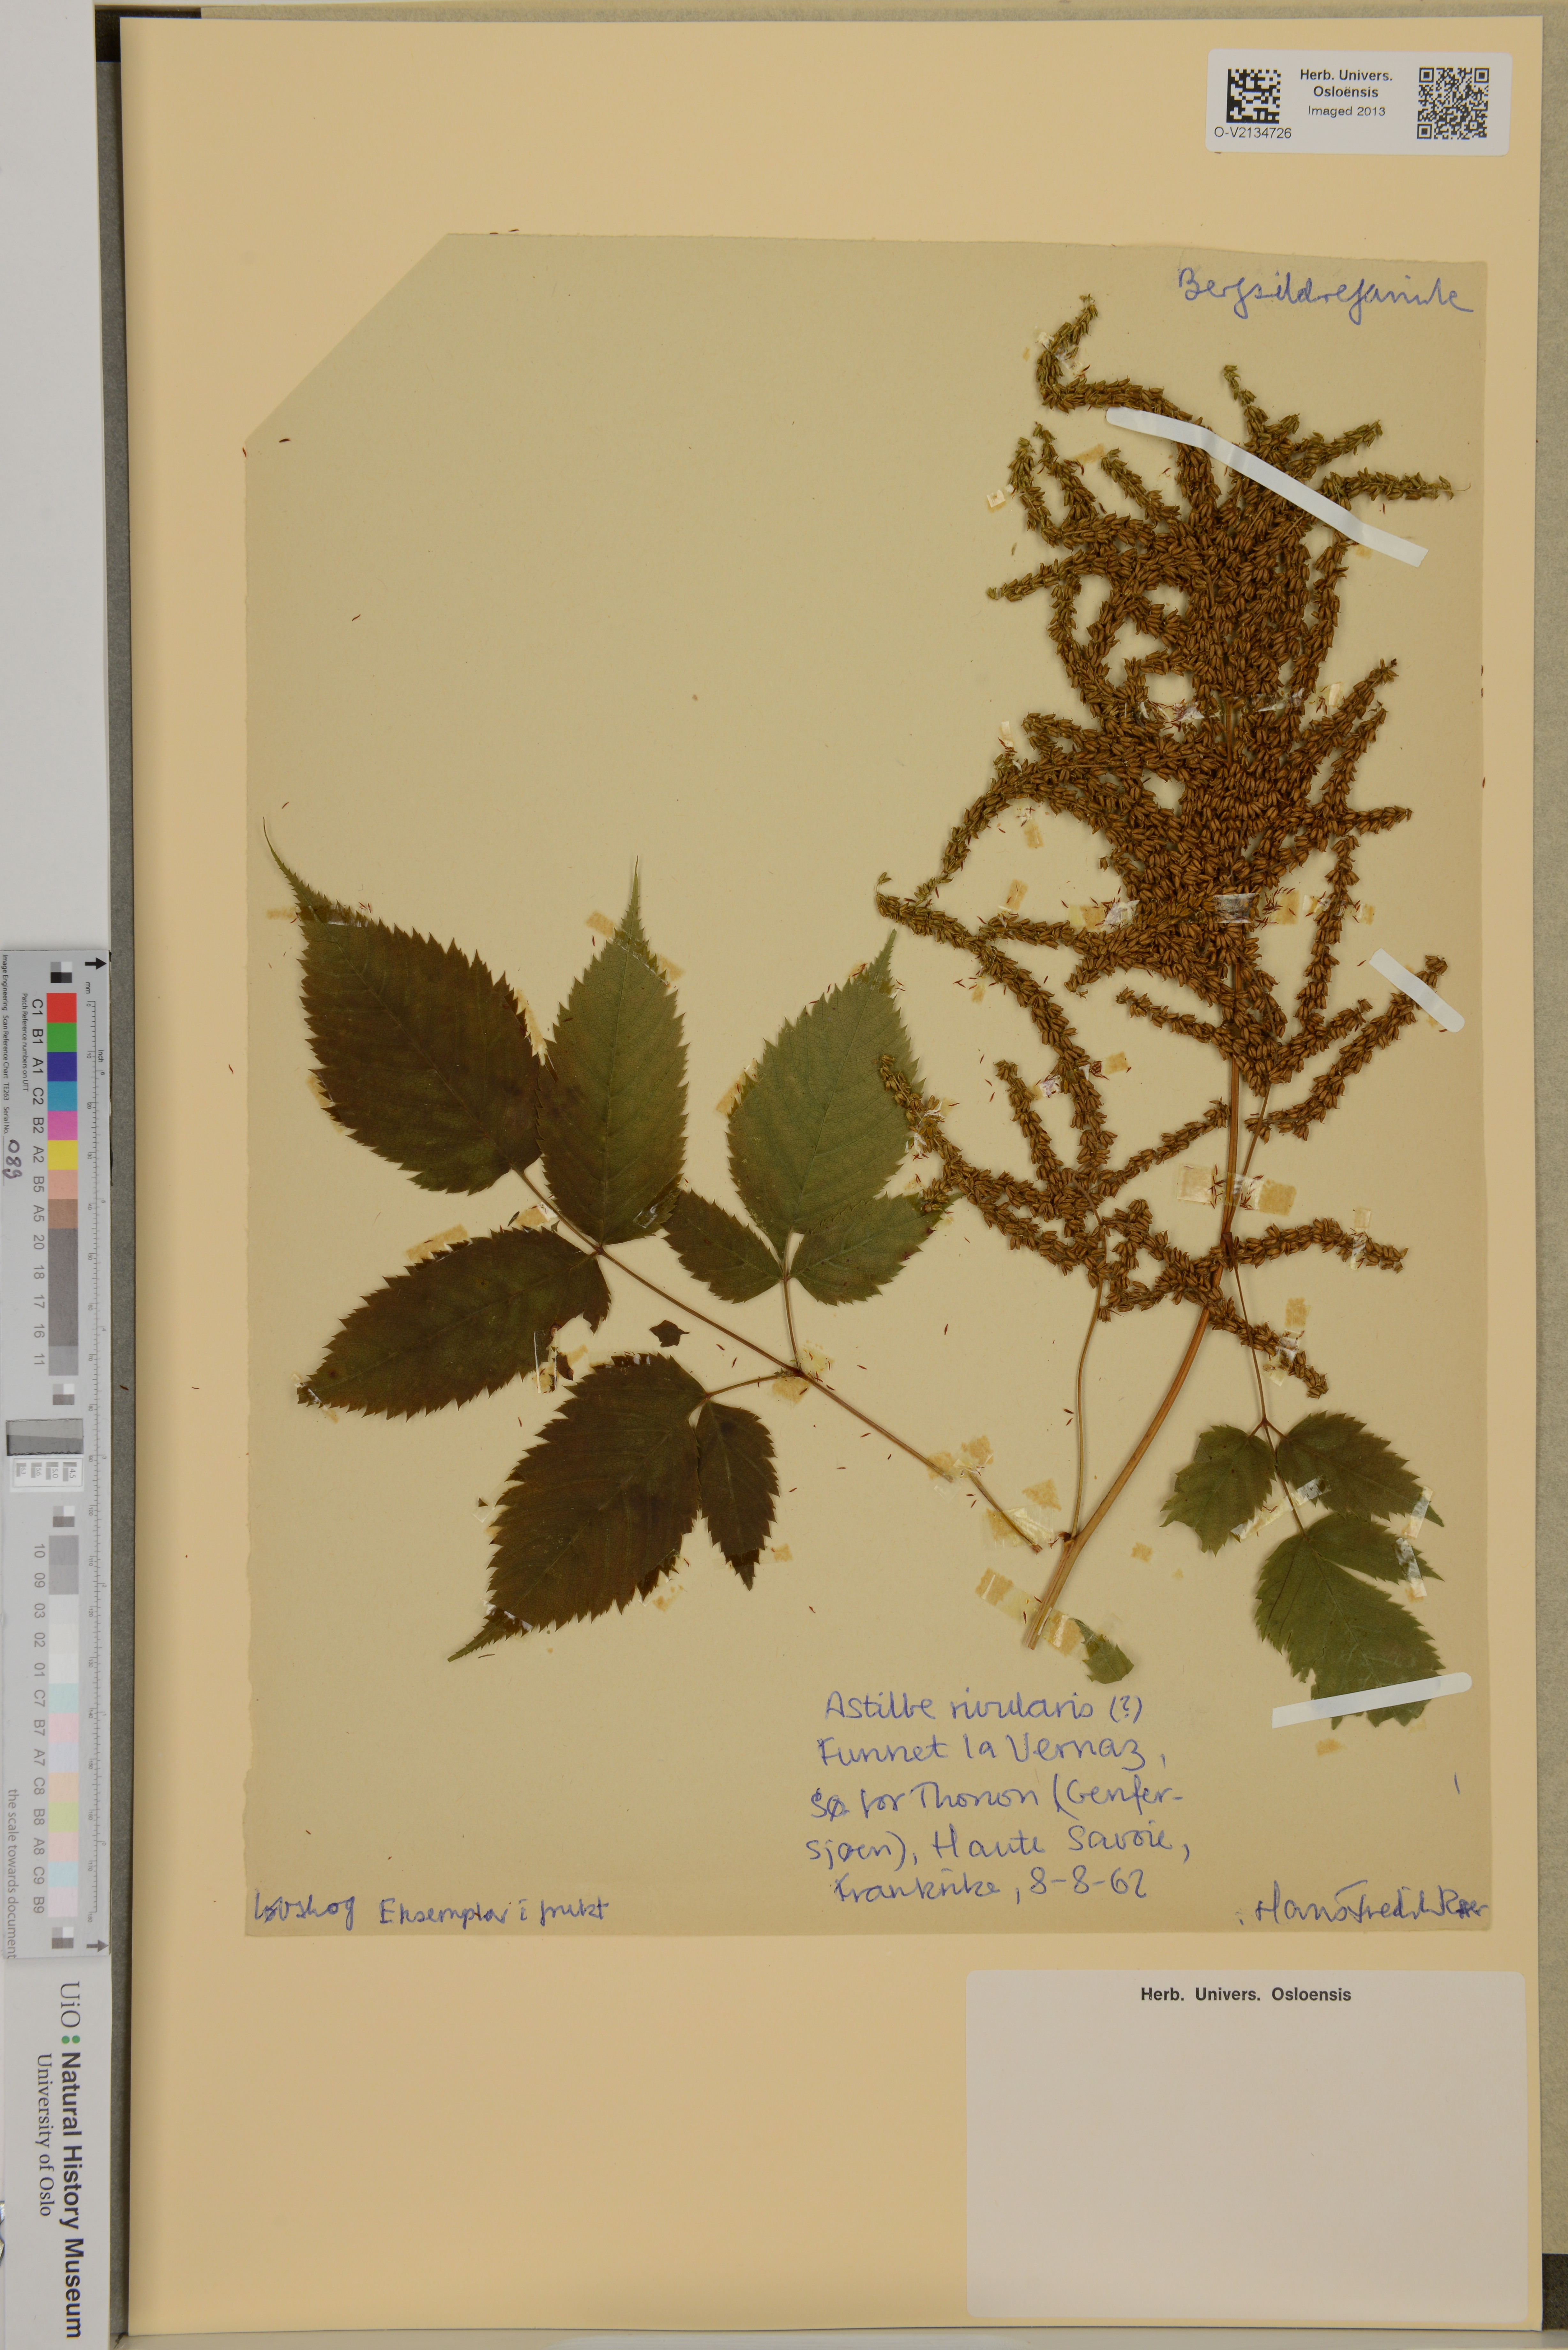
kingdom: Plantae
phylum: Tracheophyta
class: Magnoliopsida
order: Saxifragales
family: Saxifragaceae
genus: Astilbe
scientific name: Astilbe rivularis
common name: Tall false-buck's-beard
